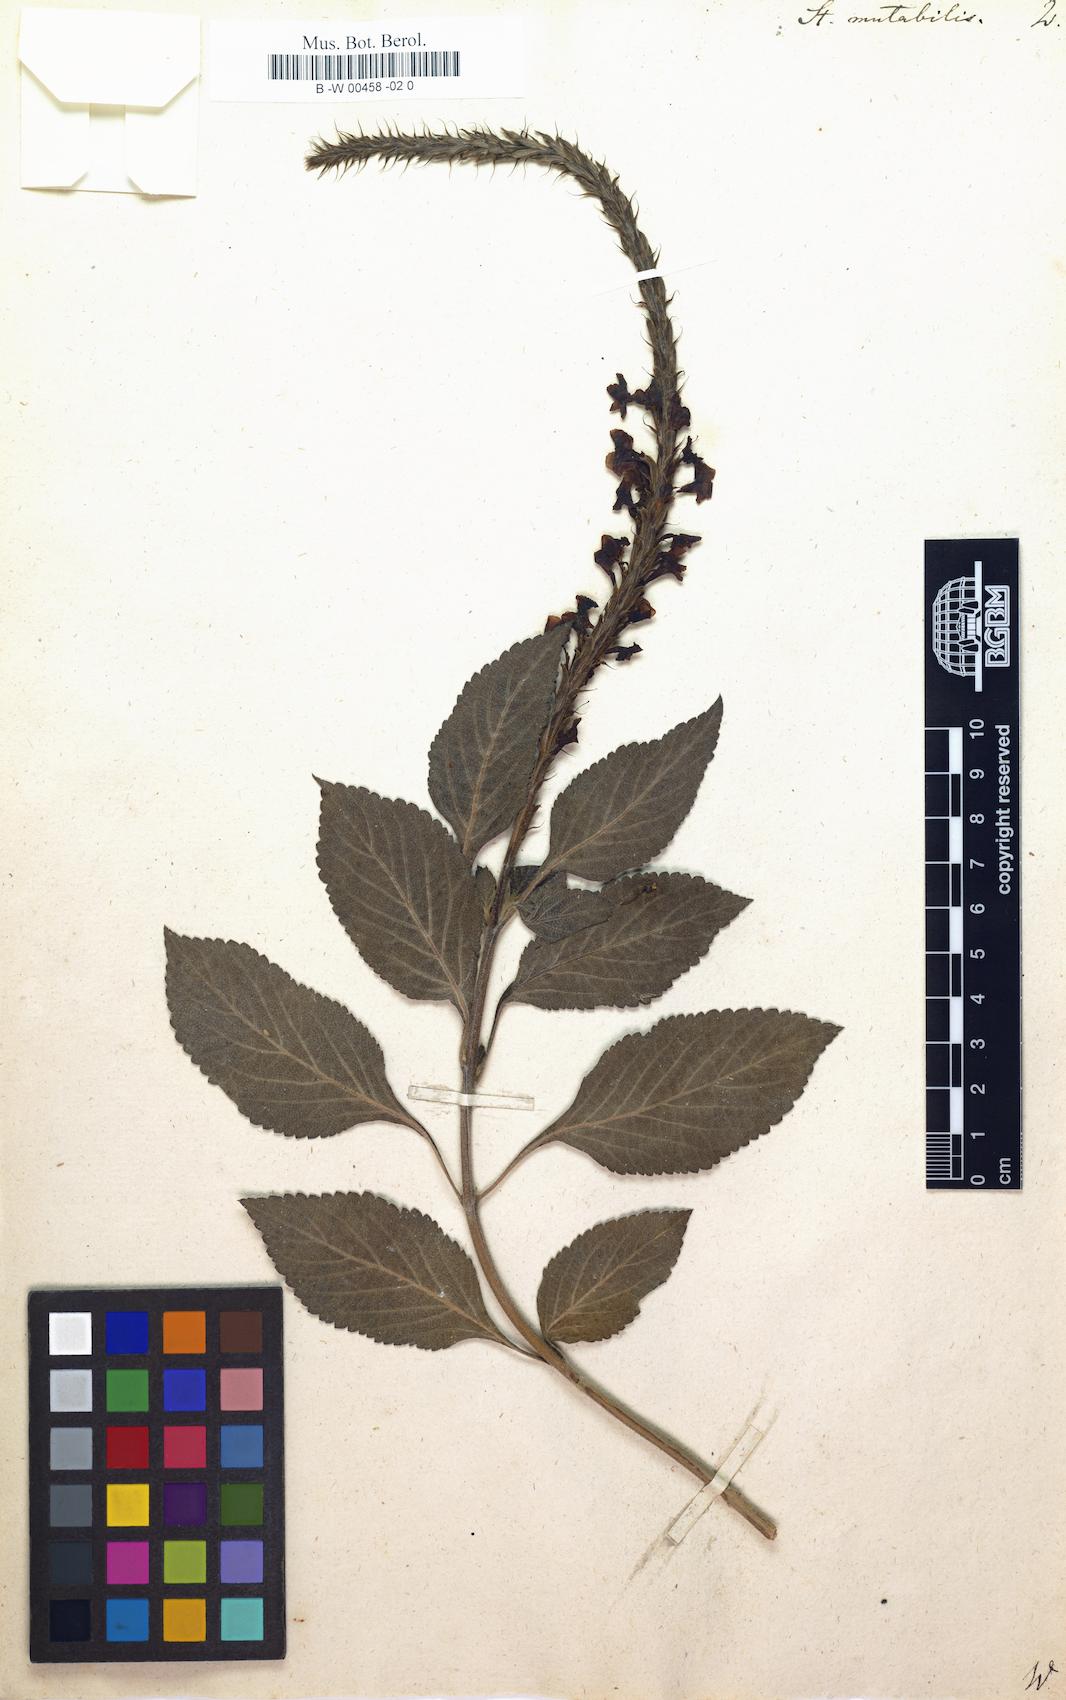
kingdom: Plantae
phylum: Tracheophyta
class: Magnoliopsida
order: Lamiales
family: Verbenaceae
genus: Stachytarpheta
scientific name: Stachytarpheta mutabilis
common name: Changeable velvetberry
